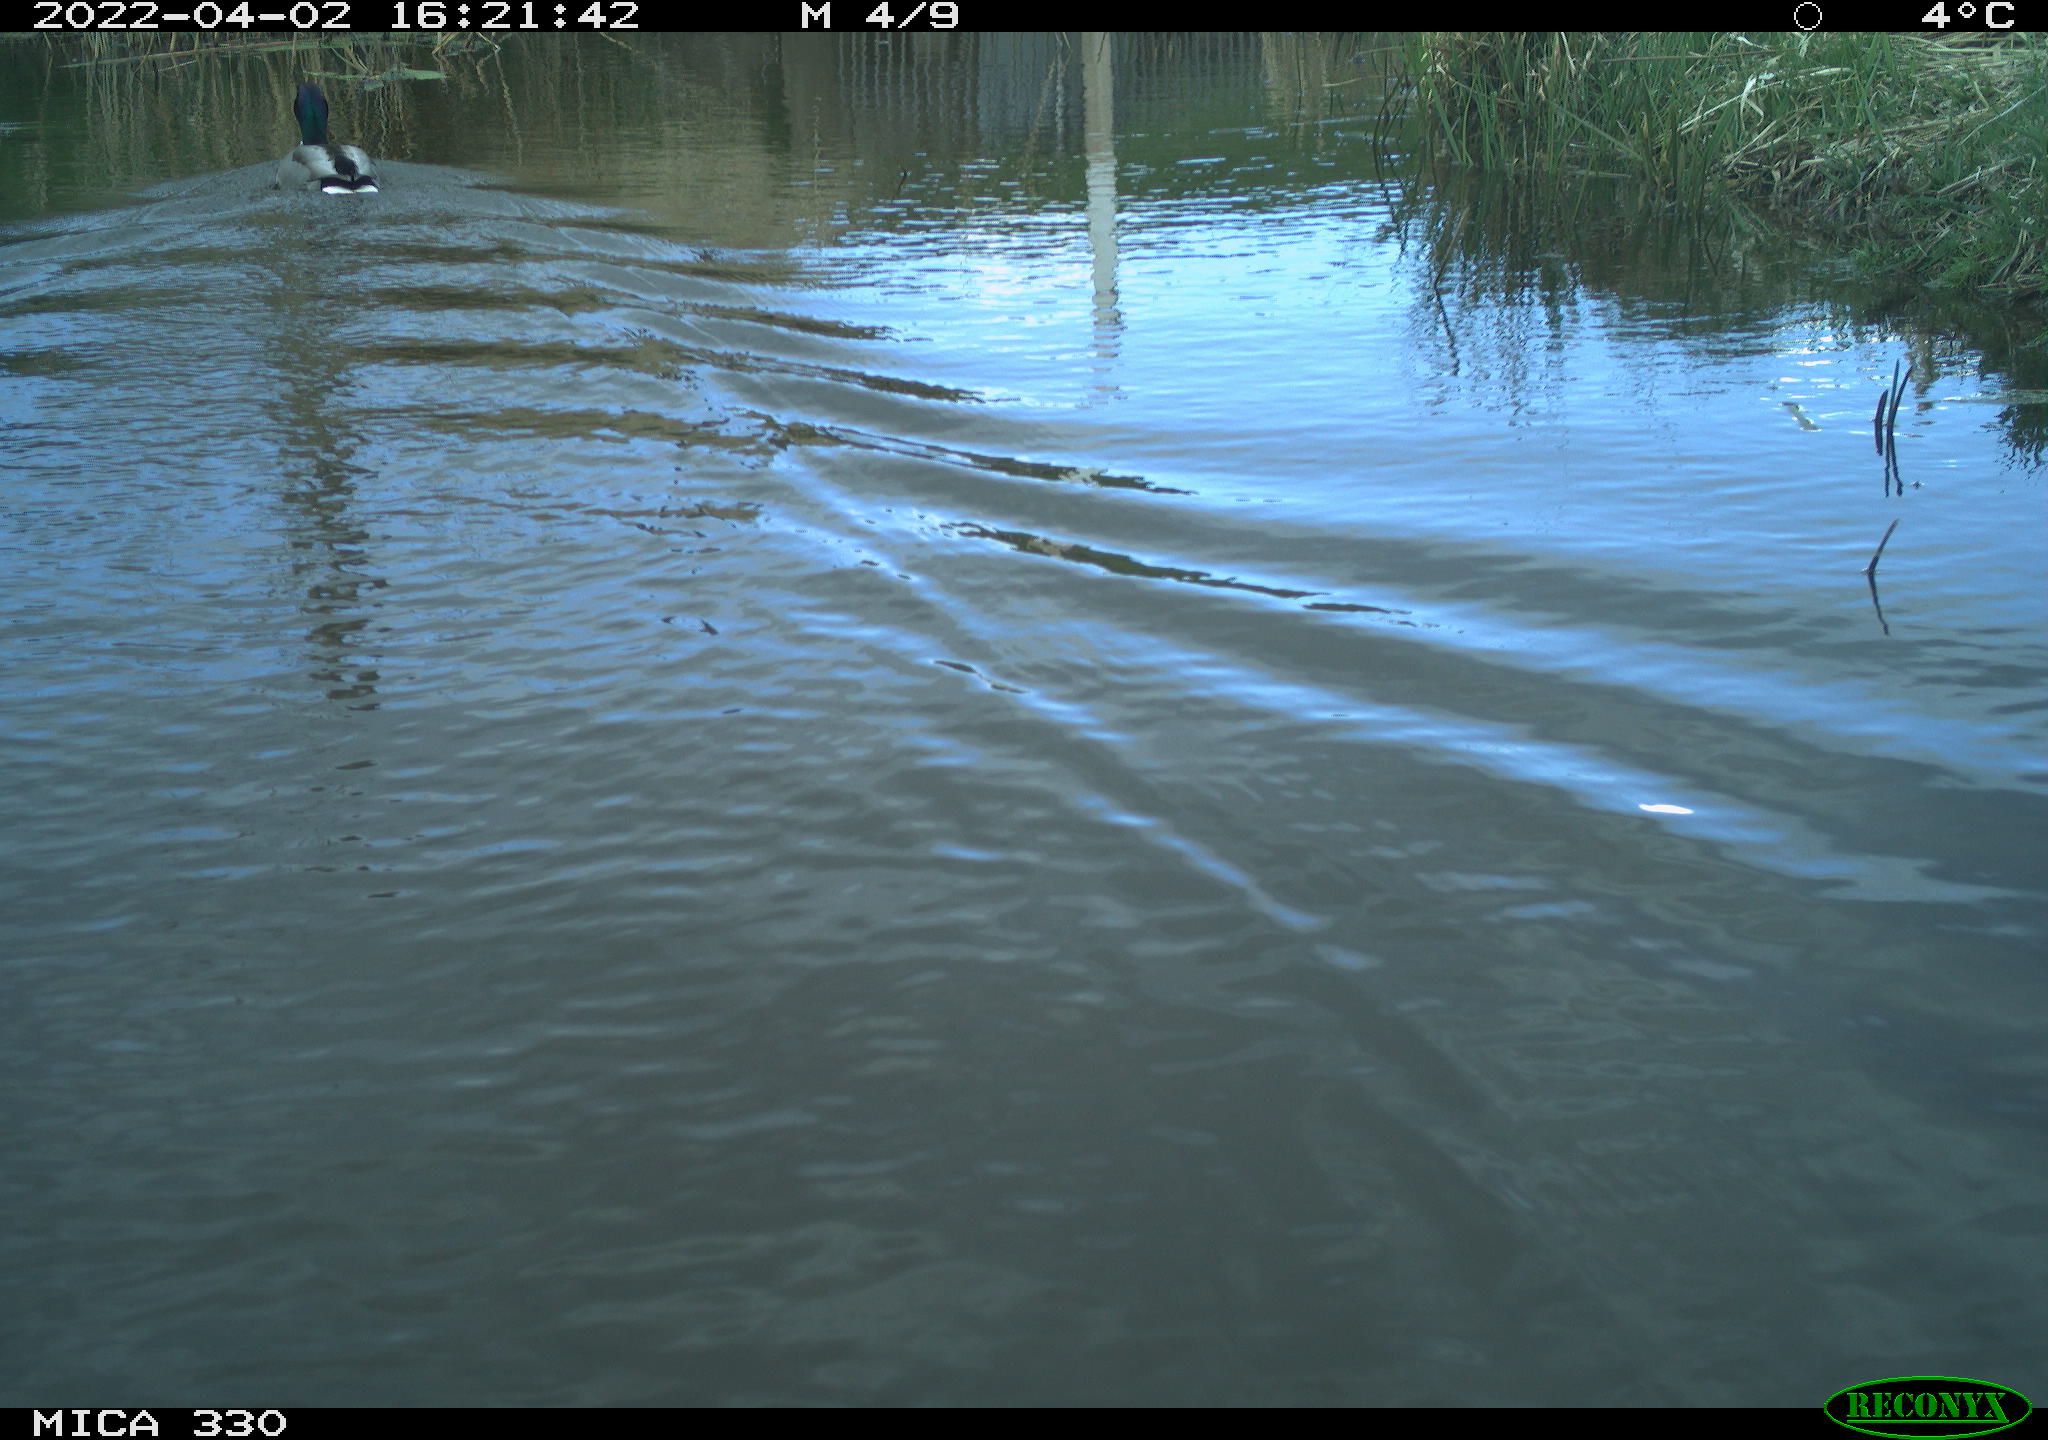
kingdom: Animalia
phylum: Chordata
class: Aves
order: Anseriformes
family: Anatidae
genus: Anas
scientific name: Anas platyrhynchos
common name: Mallard
